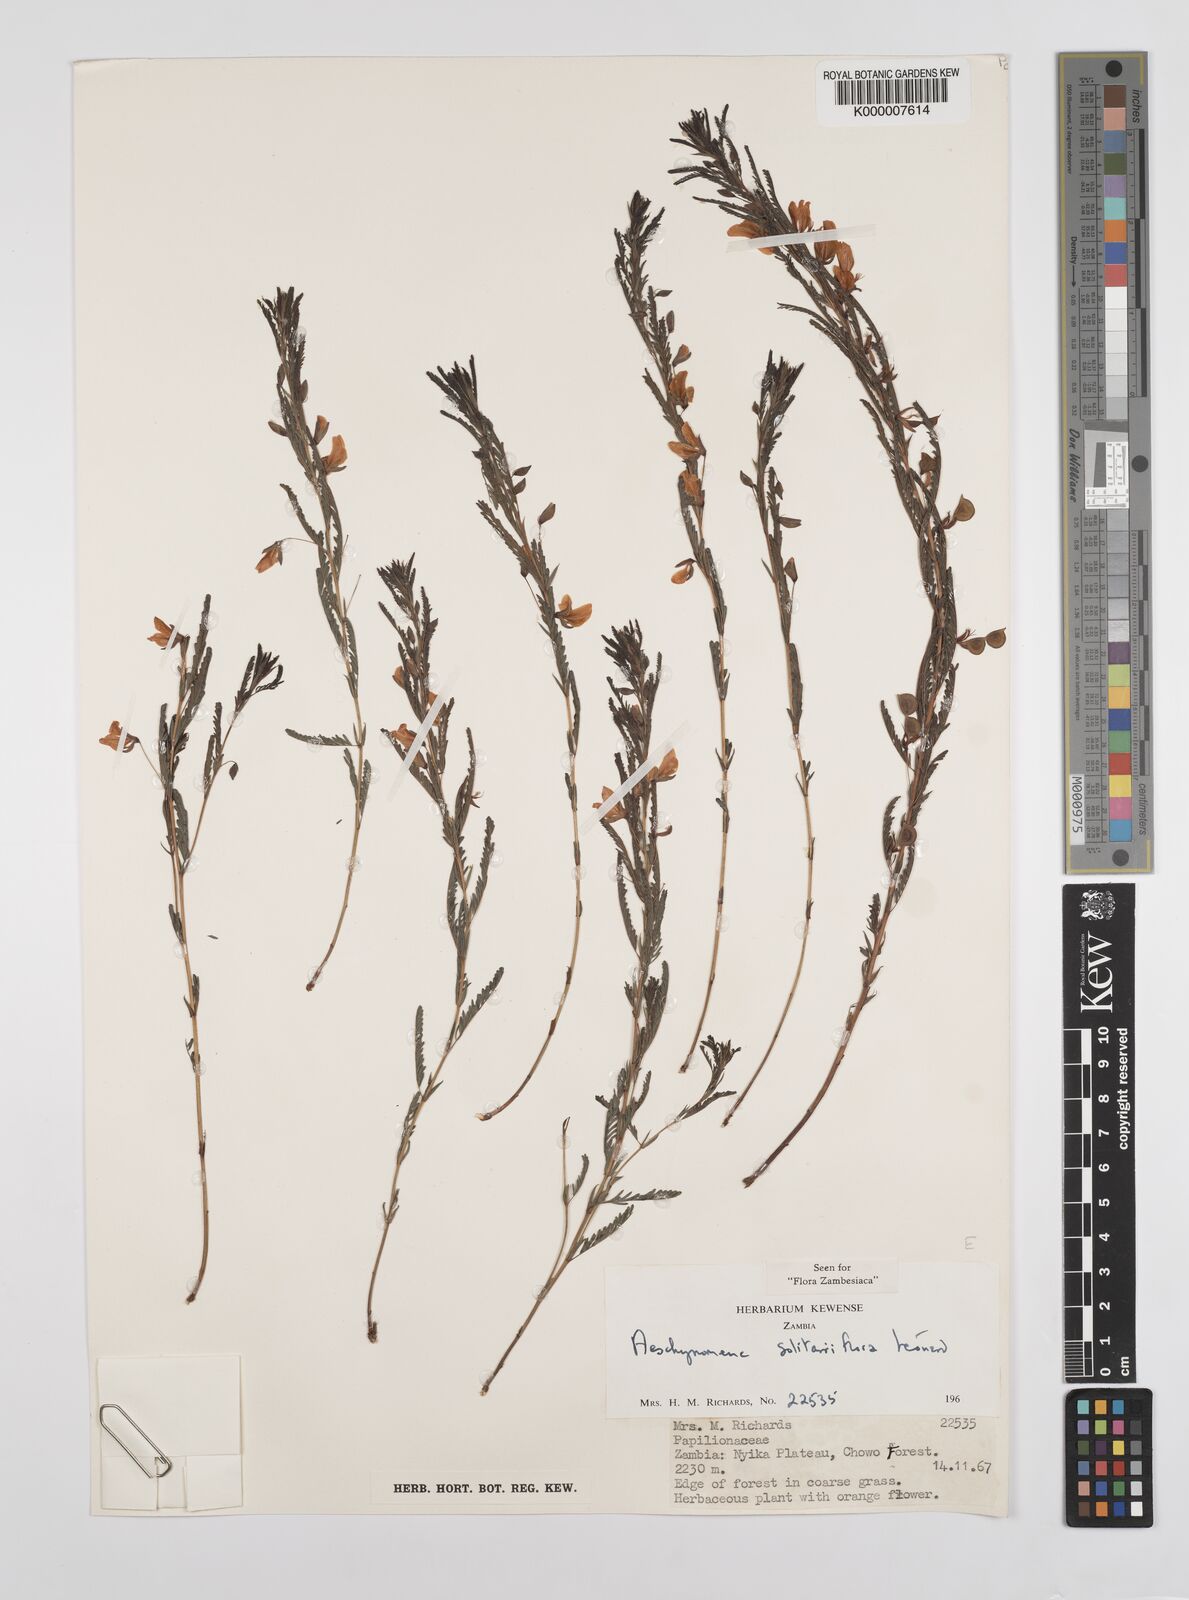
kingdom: Plantae
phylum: Tracheophyta
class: Magnoliopsida
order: Fabales
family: Fabaceae
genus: Aeschynomene
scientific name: Aeschynomene solitariiflora
